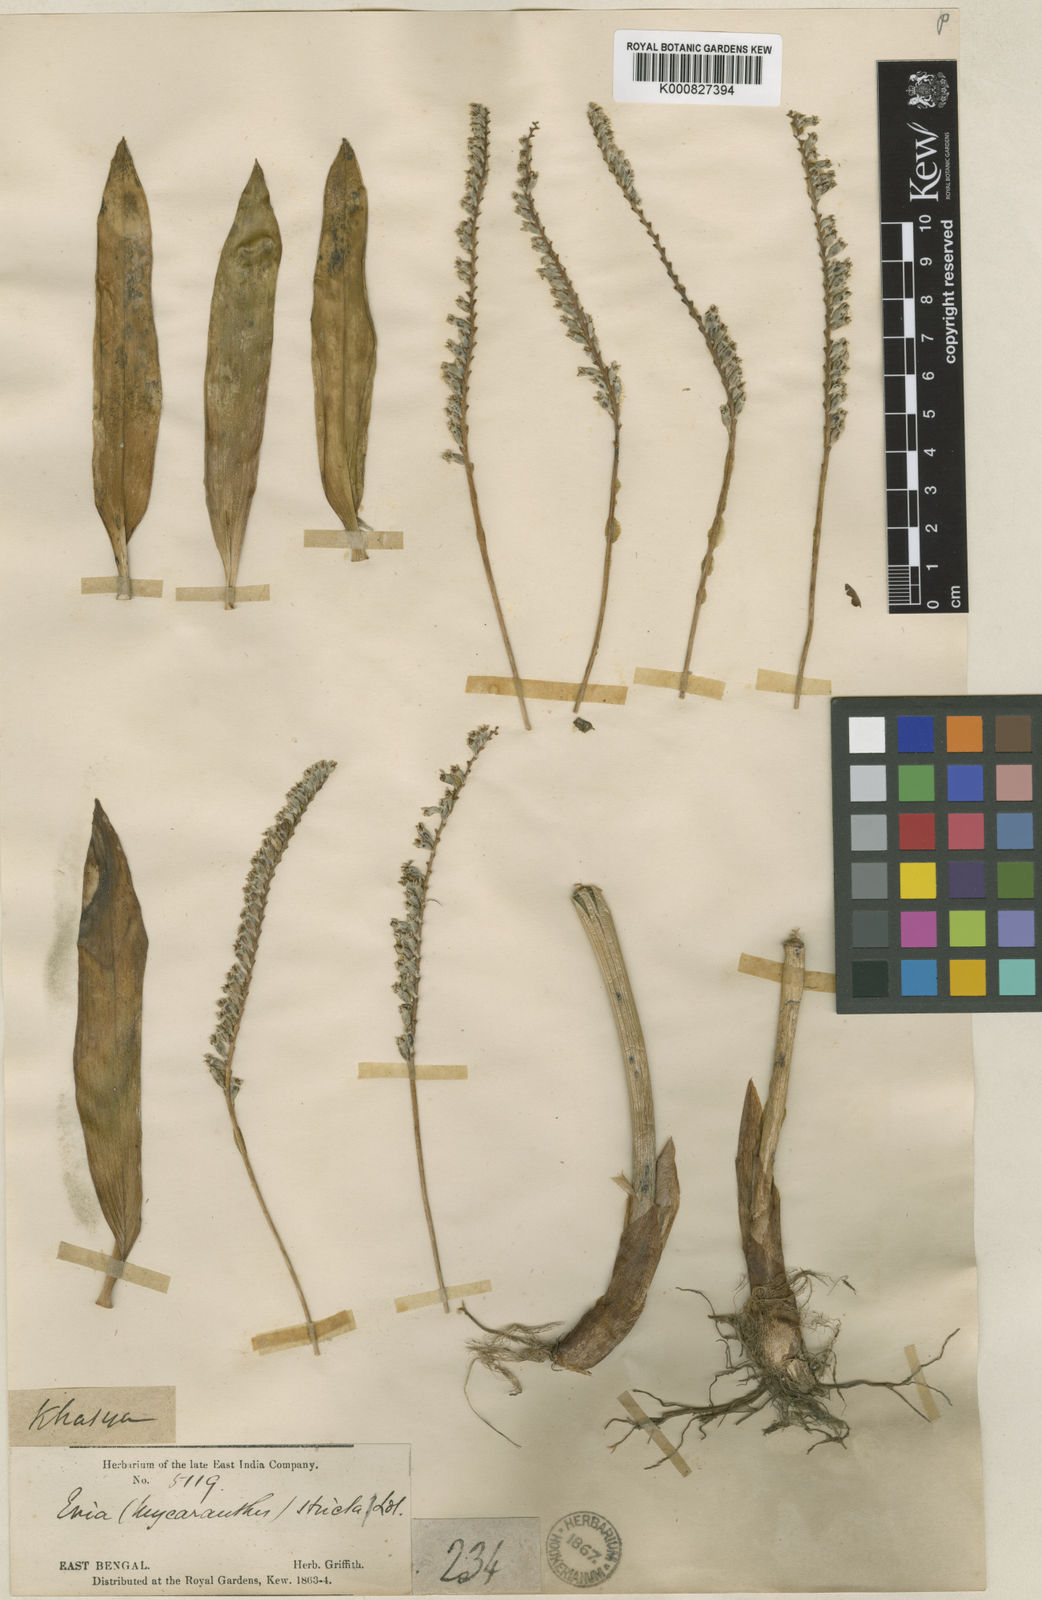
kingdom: Plantae
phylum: Tracheophyta
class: Liliopsida
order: Asparagales
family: Orchidaceae
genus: Cryptochilus
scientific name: Cryptochilus strictus
